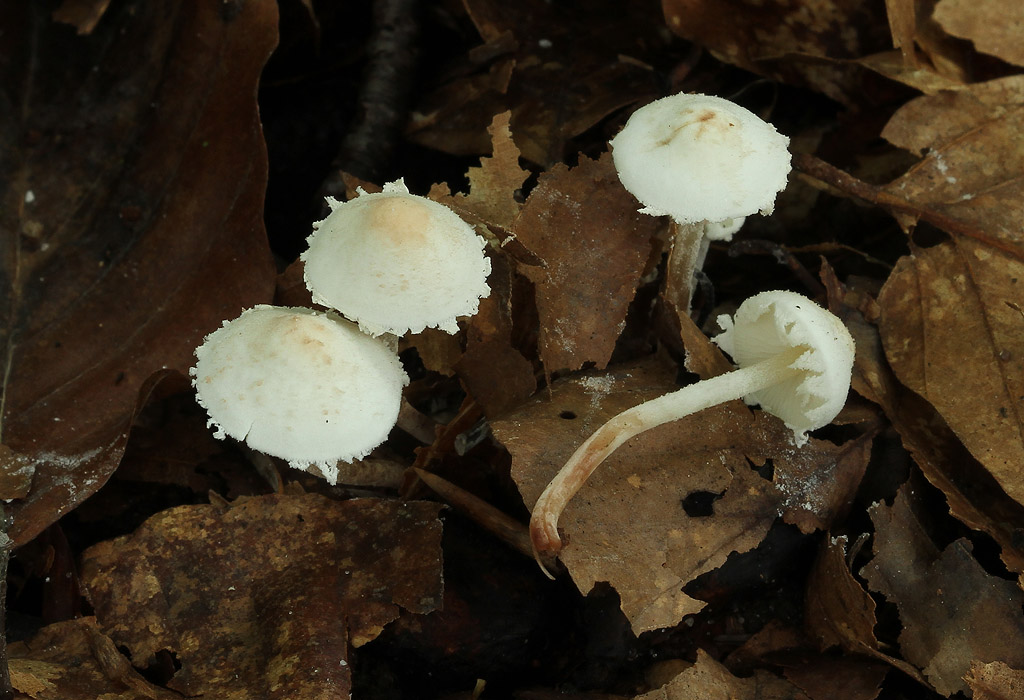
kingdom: Fungi
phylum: Basidiomycota
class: Agaricomycetes
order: Agaricales
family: Agaricaceae
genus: Cystolepiota
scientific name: Cystolepiota seminuda
